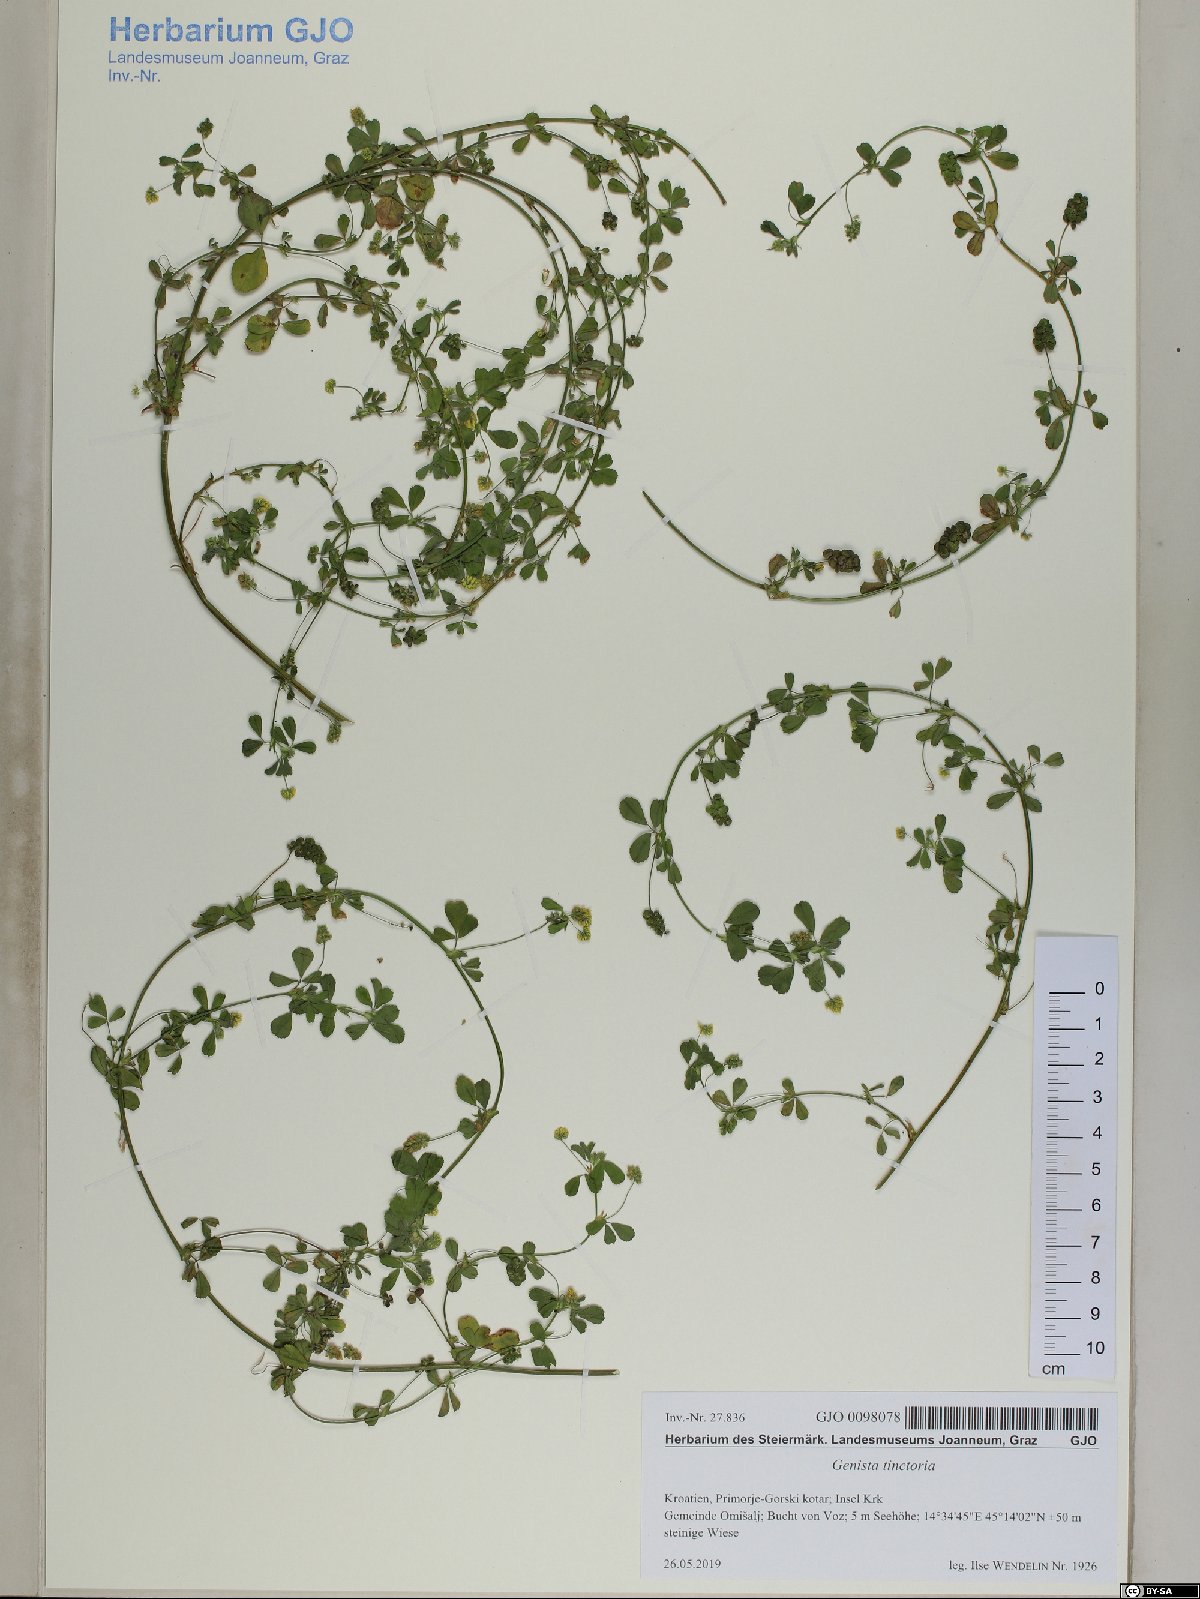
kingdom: Plantae
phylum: Tracheophyta
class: Magnoliopsida
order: Fabales
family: Fabaceae
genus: Medicago
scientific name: Medicago lupulina
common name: Black medick
